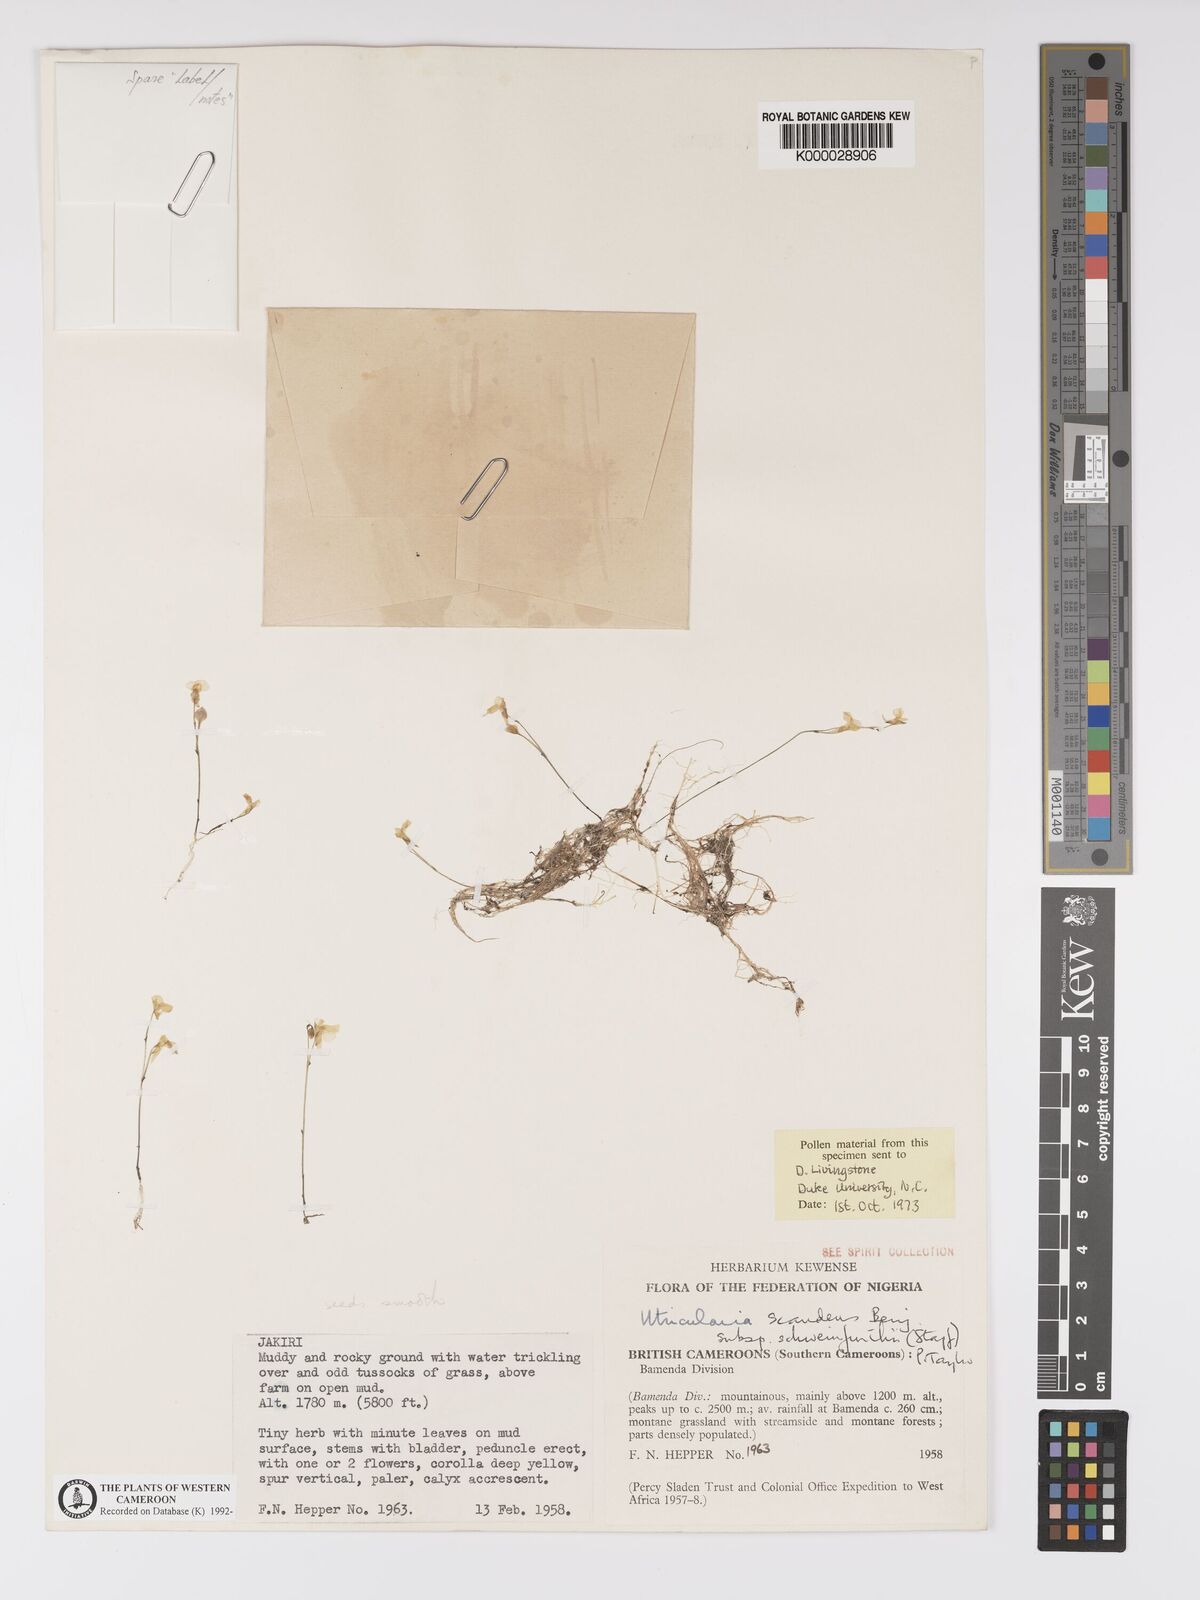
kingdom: Plantae
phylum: Tracheophyta
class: Magnoliopsida
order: Lamiales
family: Lentibulariaceae
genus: Utricularia
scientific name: Utricularia scandens
